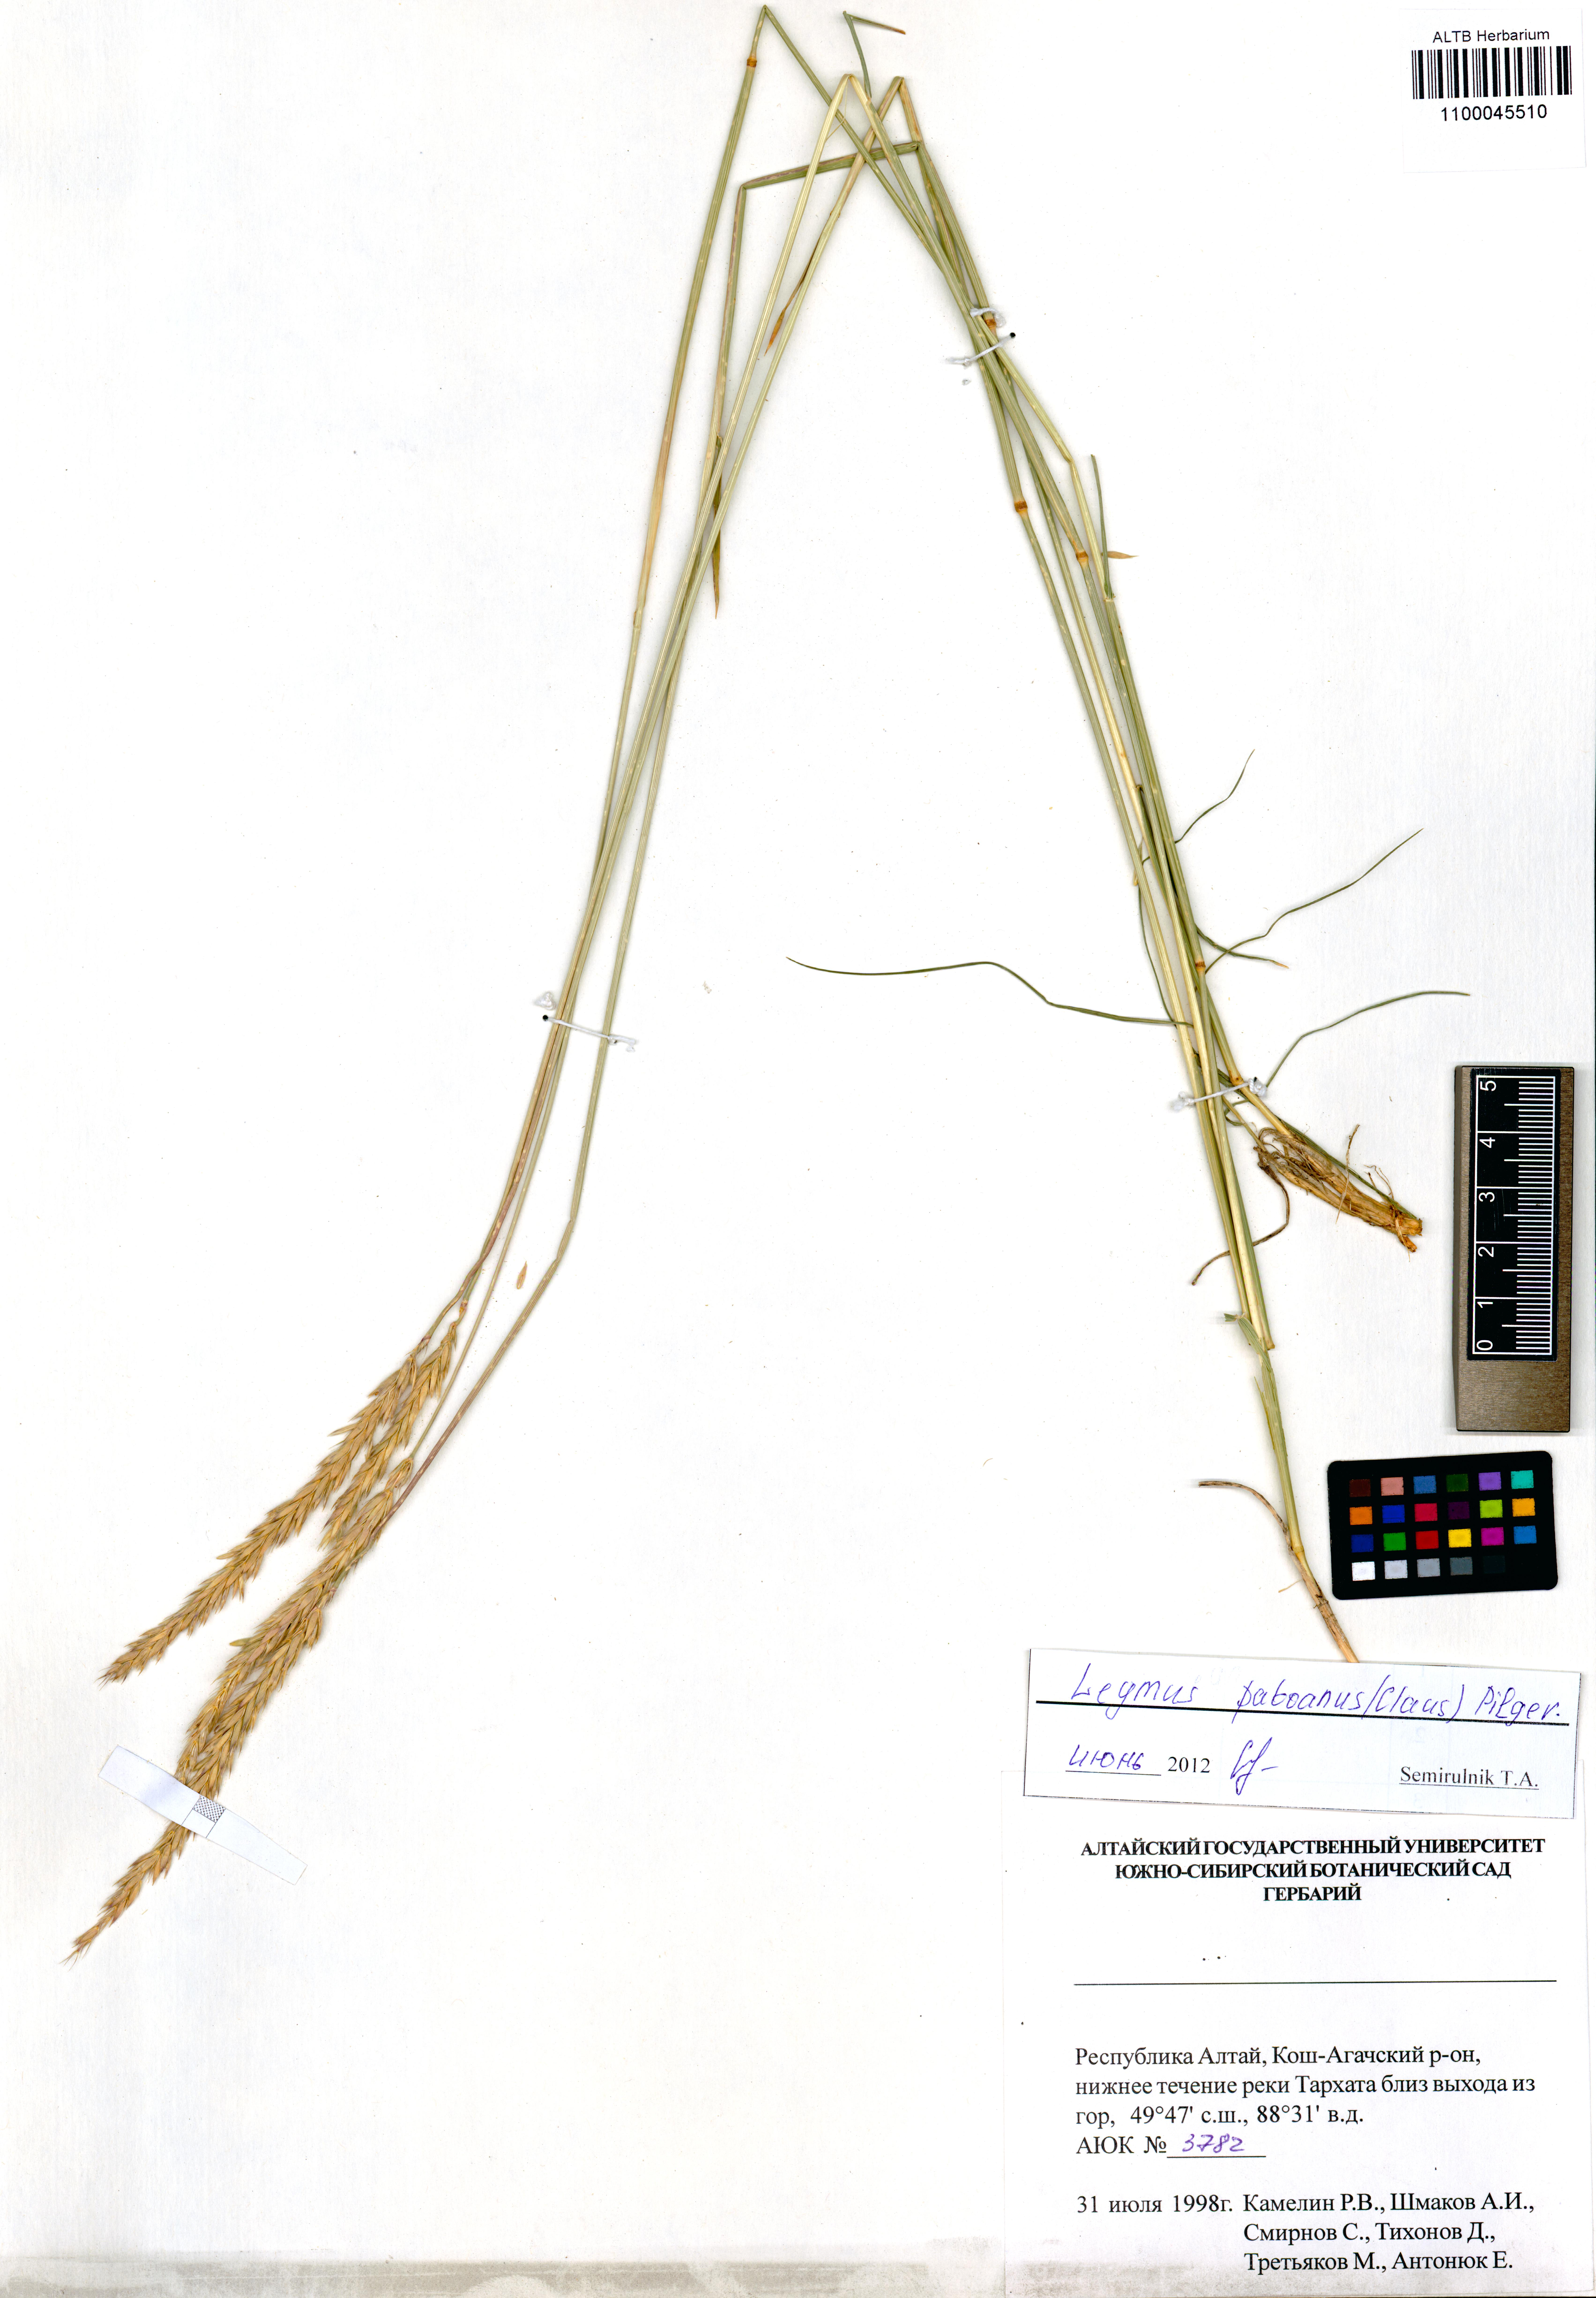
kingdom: Plantae
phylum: Tracheophyta
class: Liliopsida
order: Poales
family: Poaceae
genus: Leymus
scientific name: Leymus paboanus
